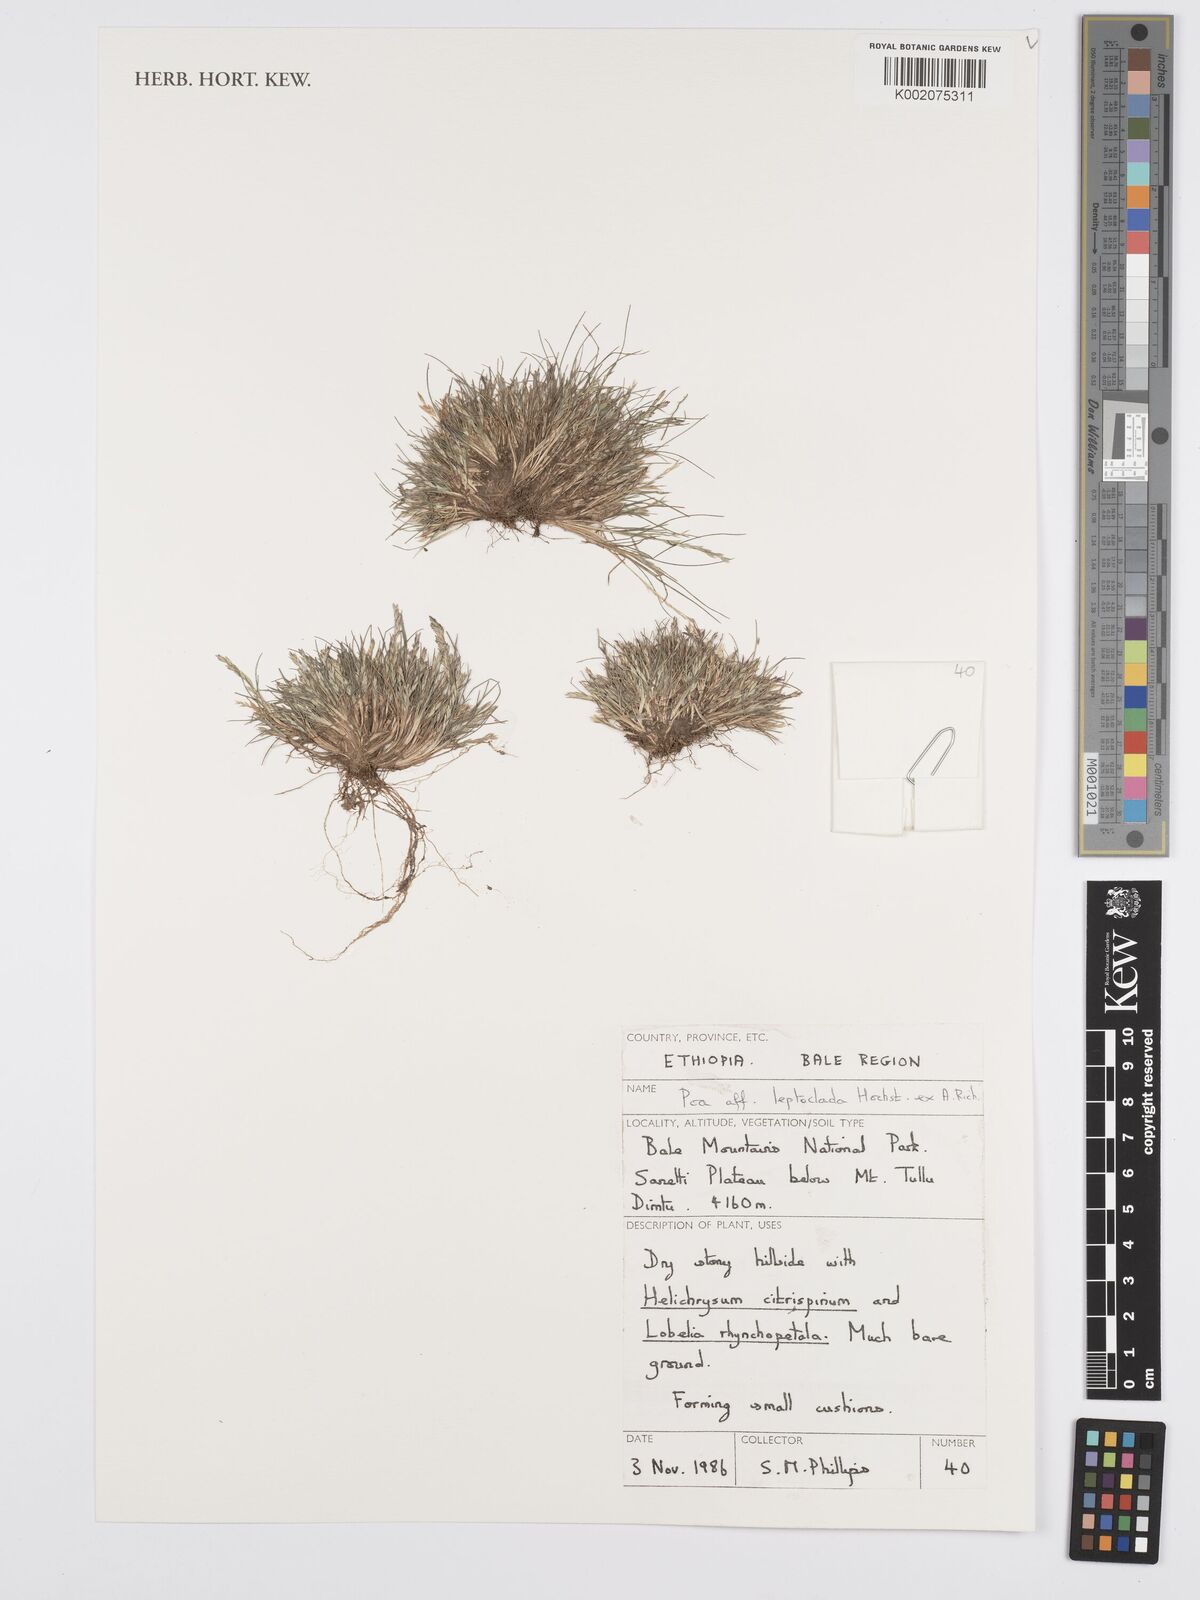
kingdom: Plantae
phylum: Tracheophyta
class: Liliopsida
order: Poales
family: Poaceae
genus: Poa
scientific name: Poa leptoclada
